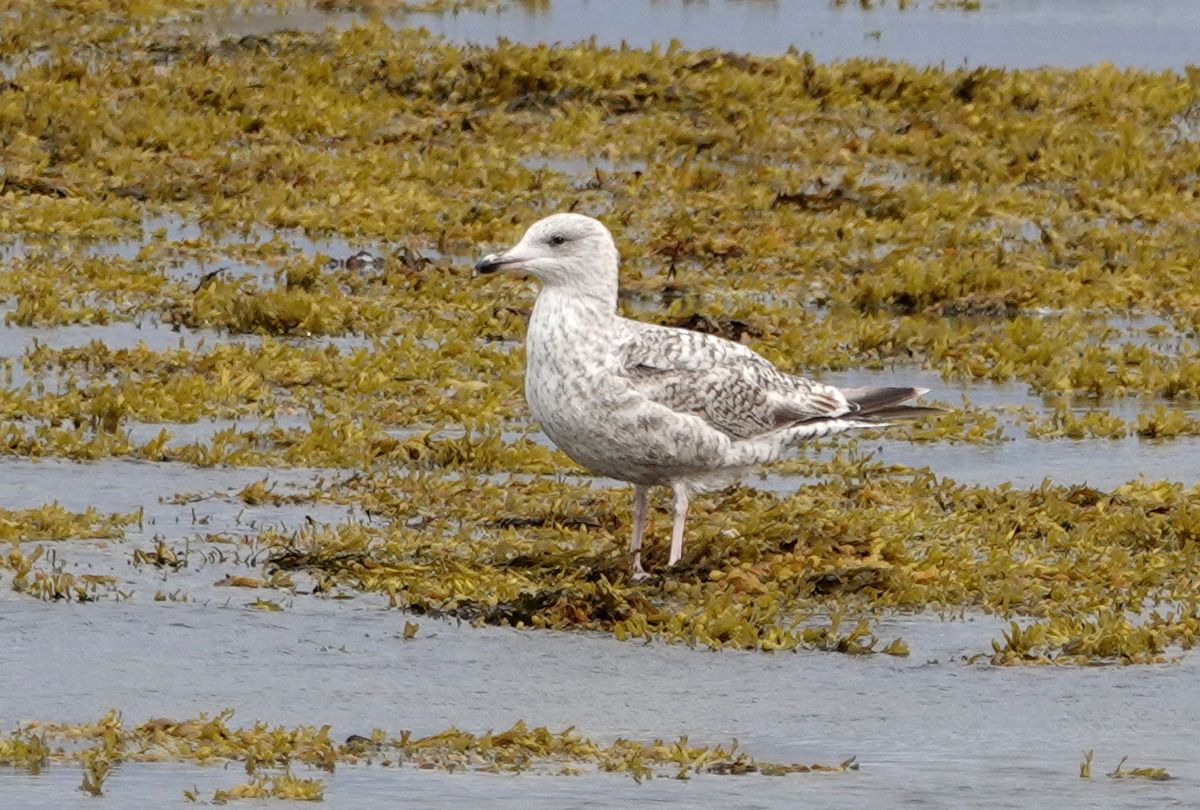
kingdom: Animalia
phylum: Chordata
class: Aves
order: Charadriiformes
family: Laridae
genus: Larus
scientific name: Larus argentatus
